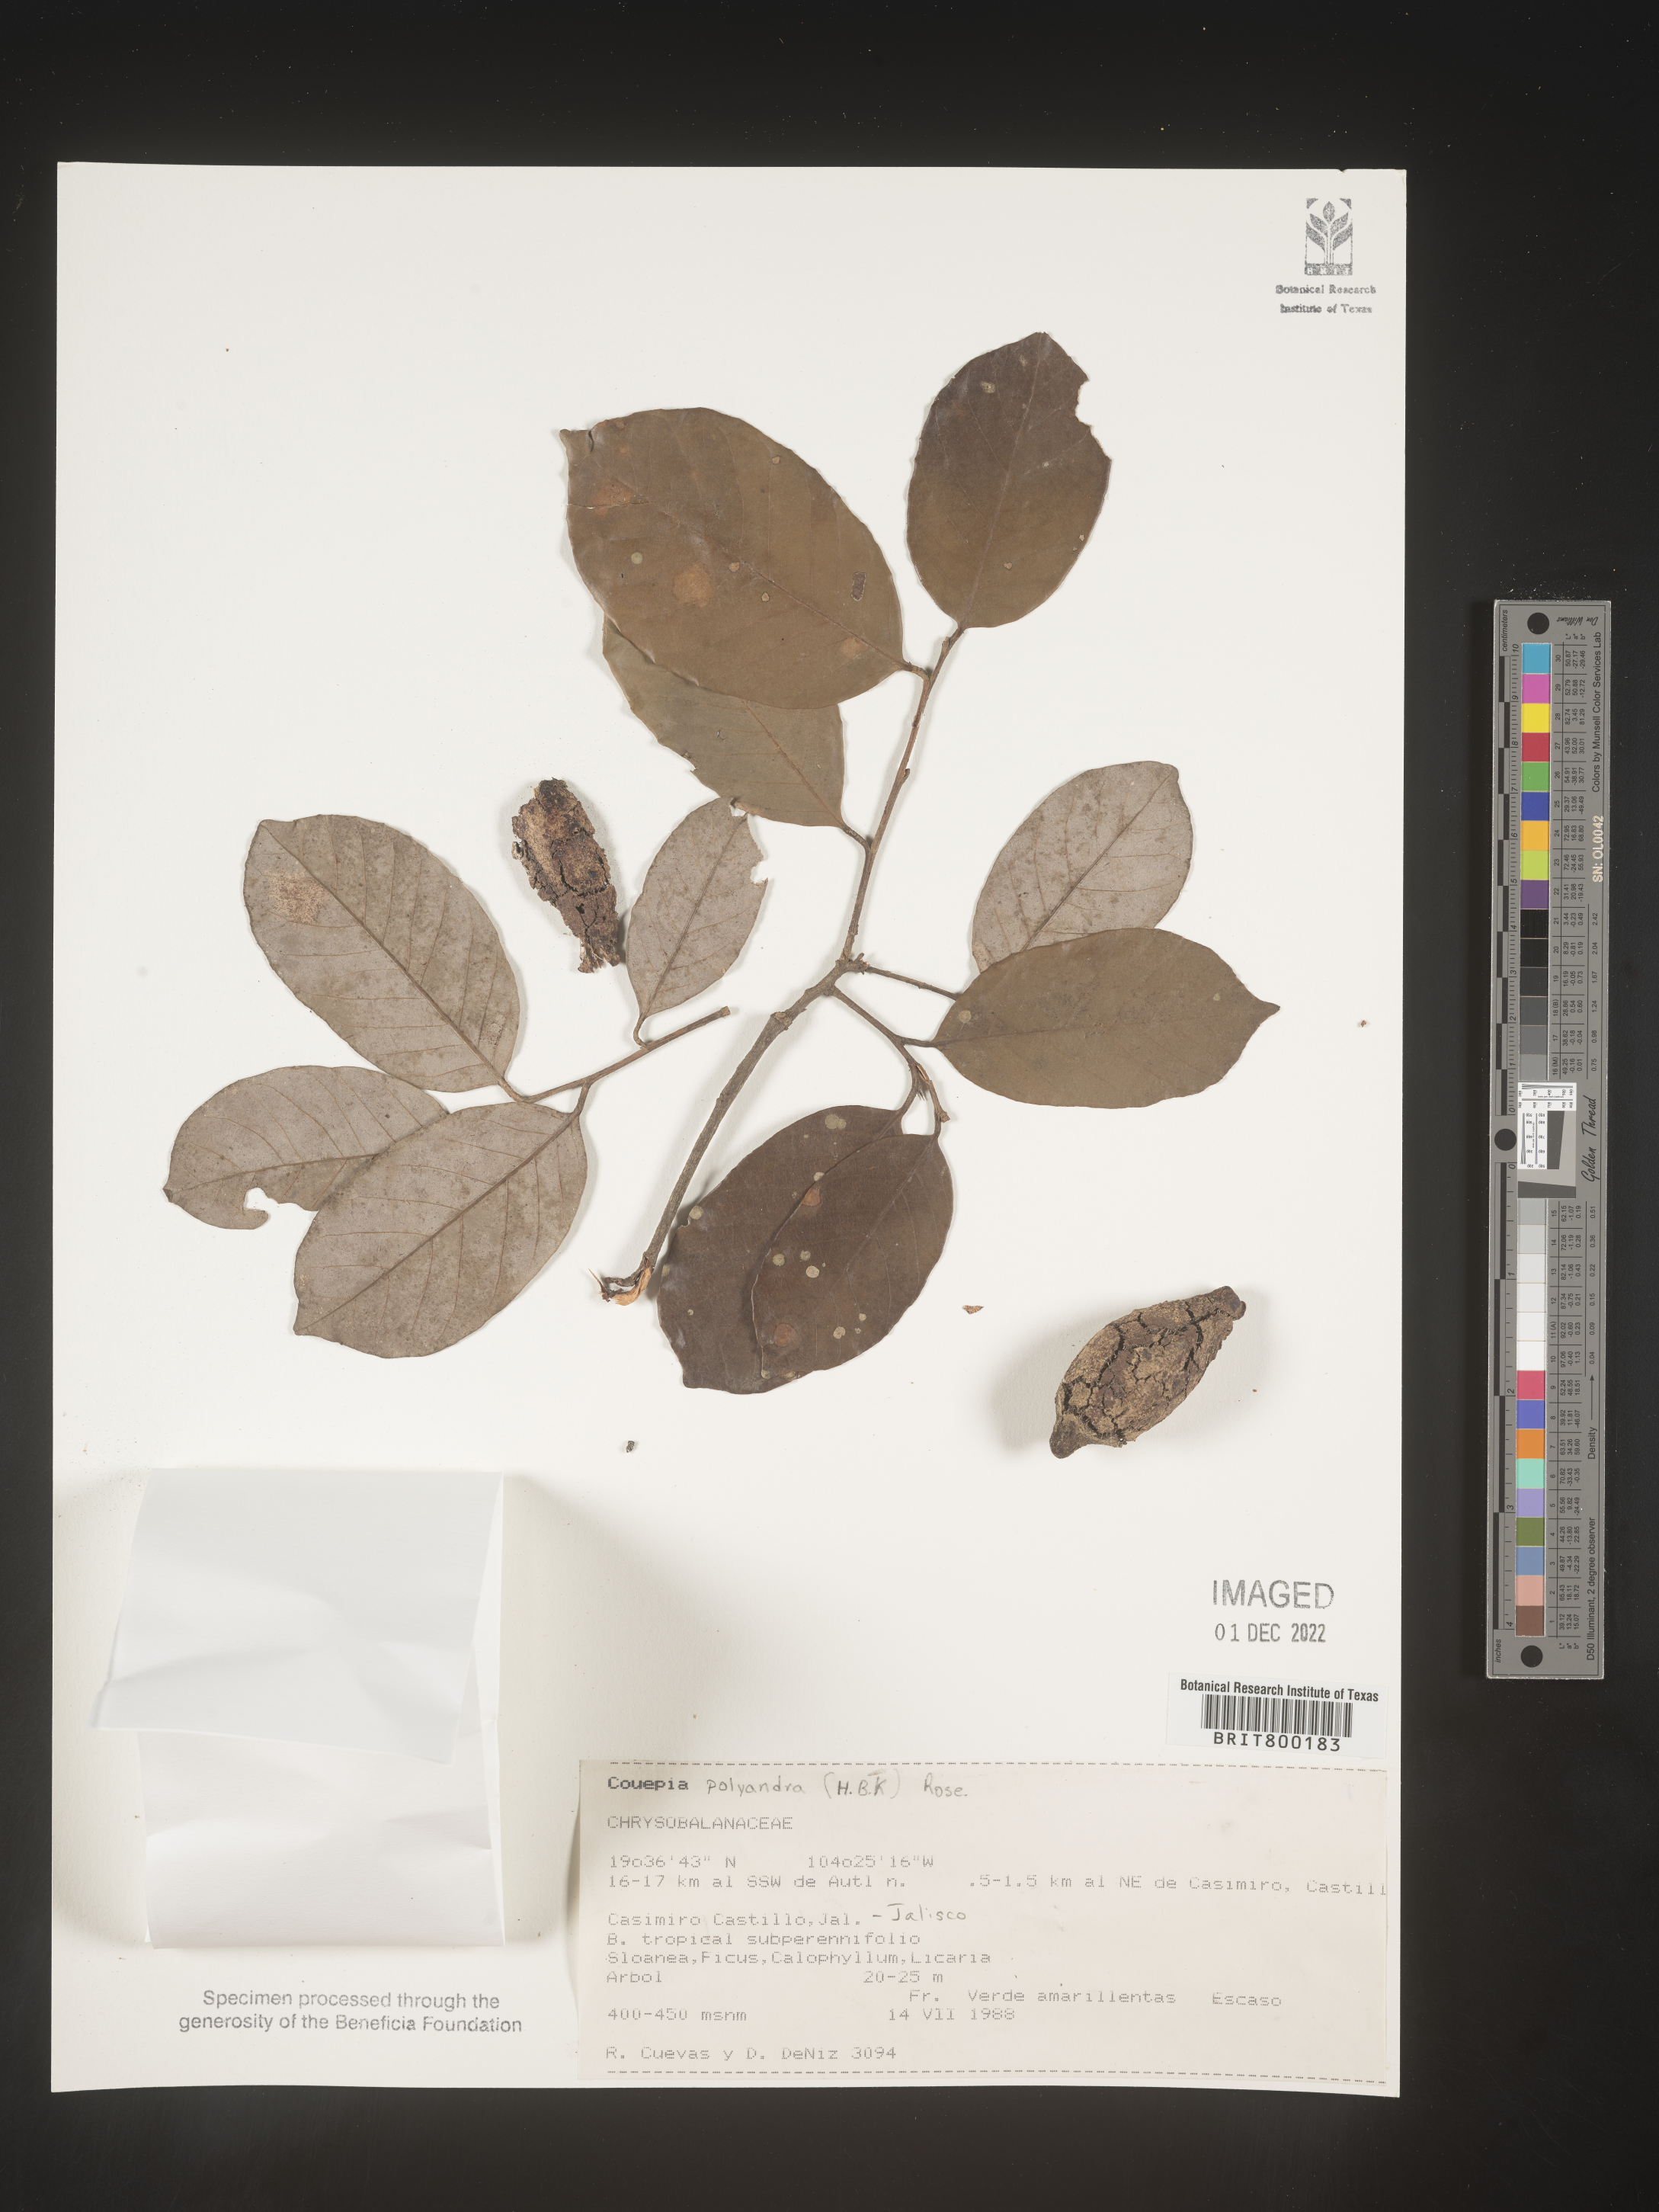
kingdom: Plantae
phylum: Tracheophyta
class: Magnoliopsida
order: Malpighiales
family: Chrysobalanaceae
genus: Couepia
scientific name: Couepia
